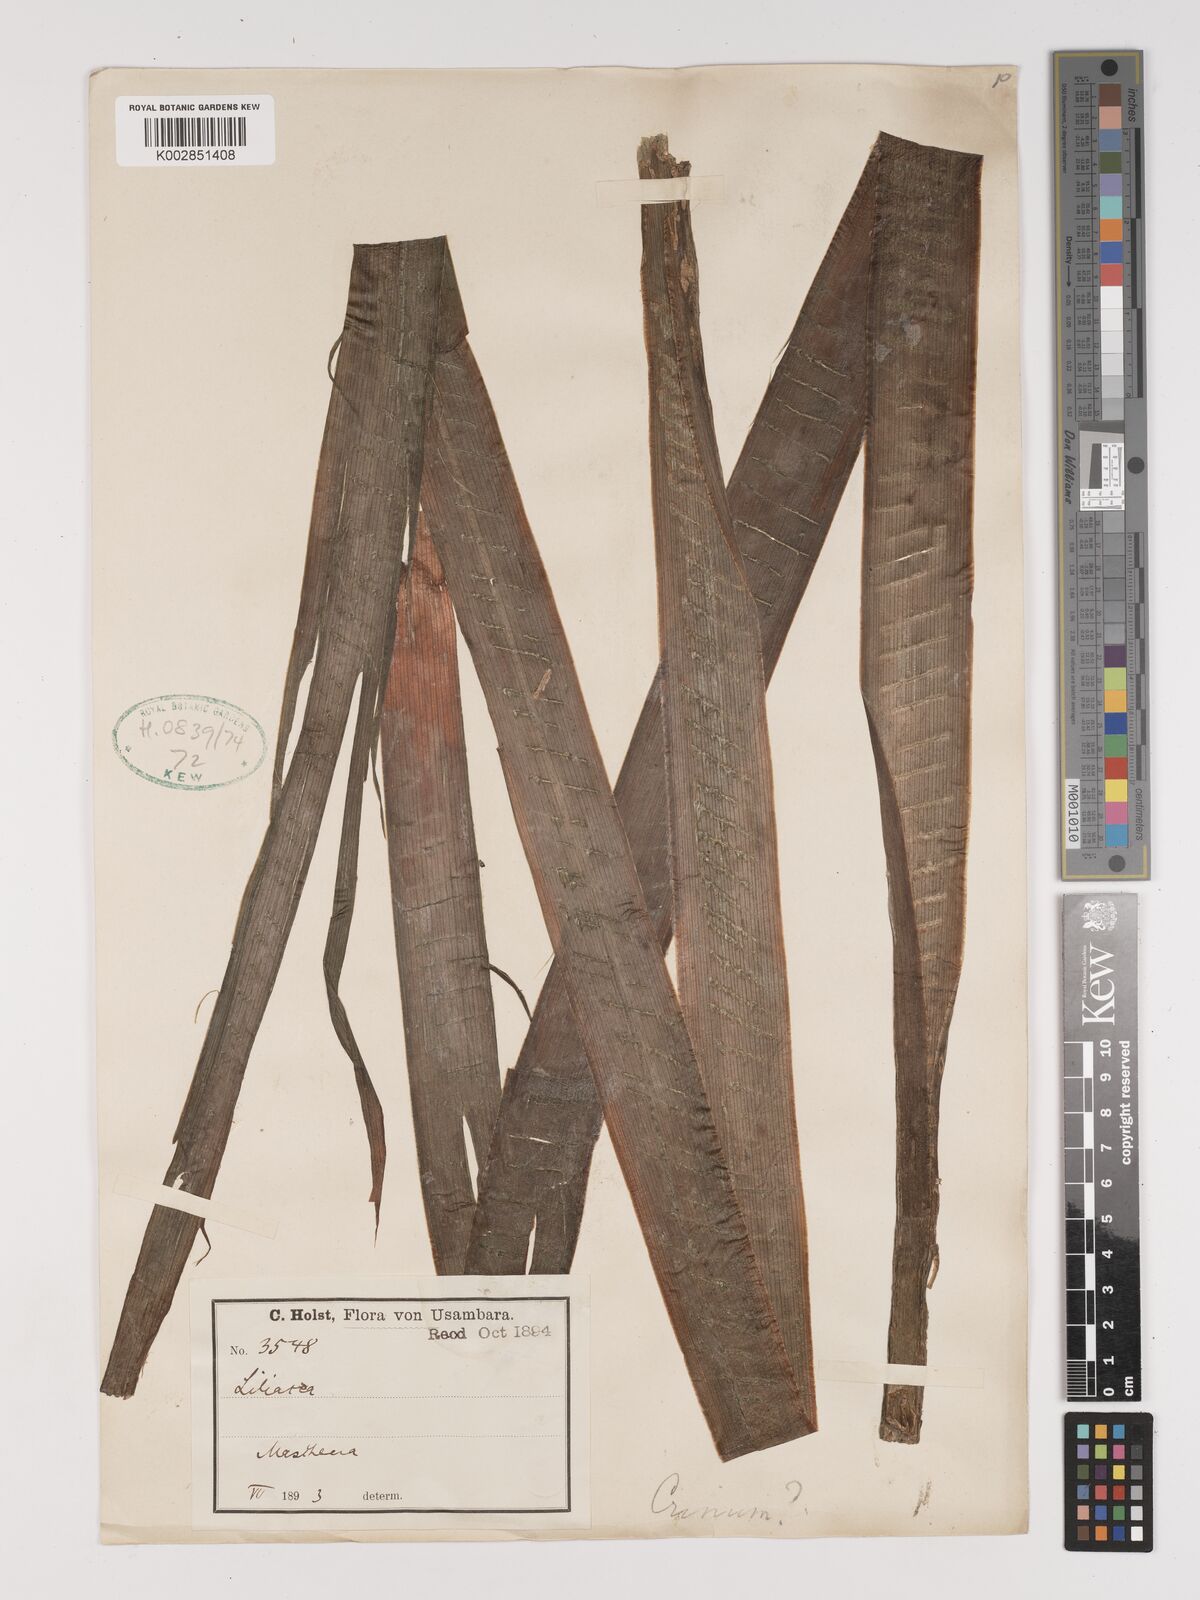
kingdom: Plantae
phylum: Tracheophyta
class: Liliopsida
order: Asparagales
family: Amaryllidaceae
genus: Crinum
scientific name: Crinum
